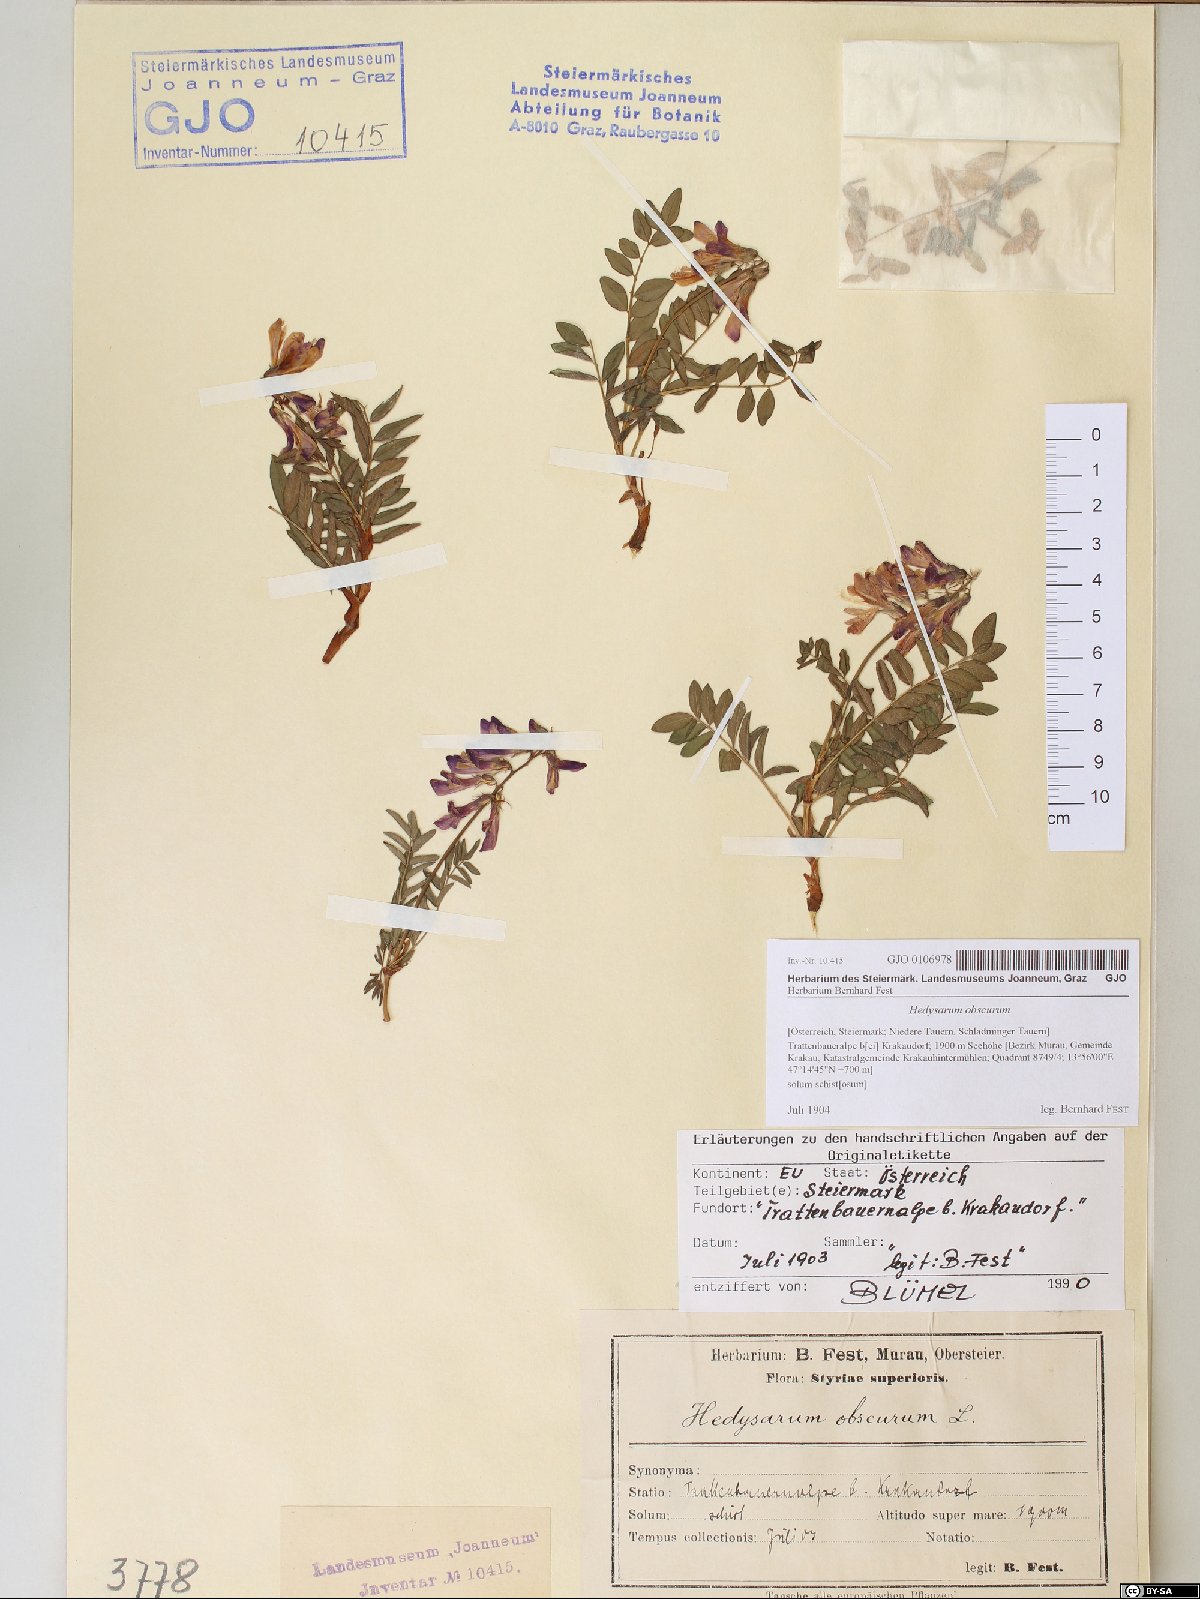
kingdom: Plantae
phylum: Tracheophyta
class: Magnoliopsida
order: Fabales
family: Fabaceae
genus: Hedysarum
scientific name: Hedysarum hedysaroides
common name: Alpine french-honeysuckle
